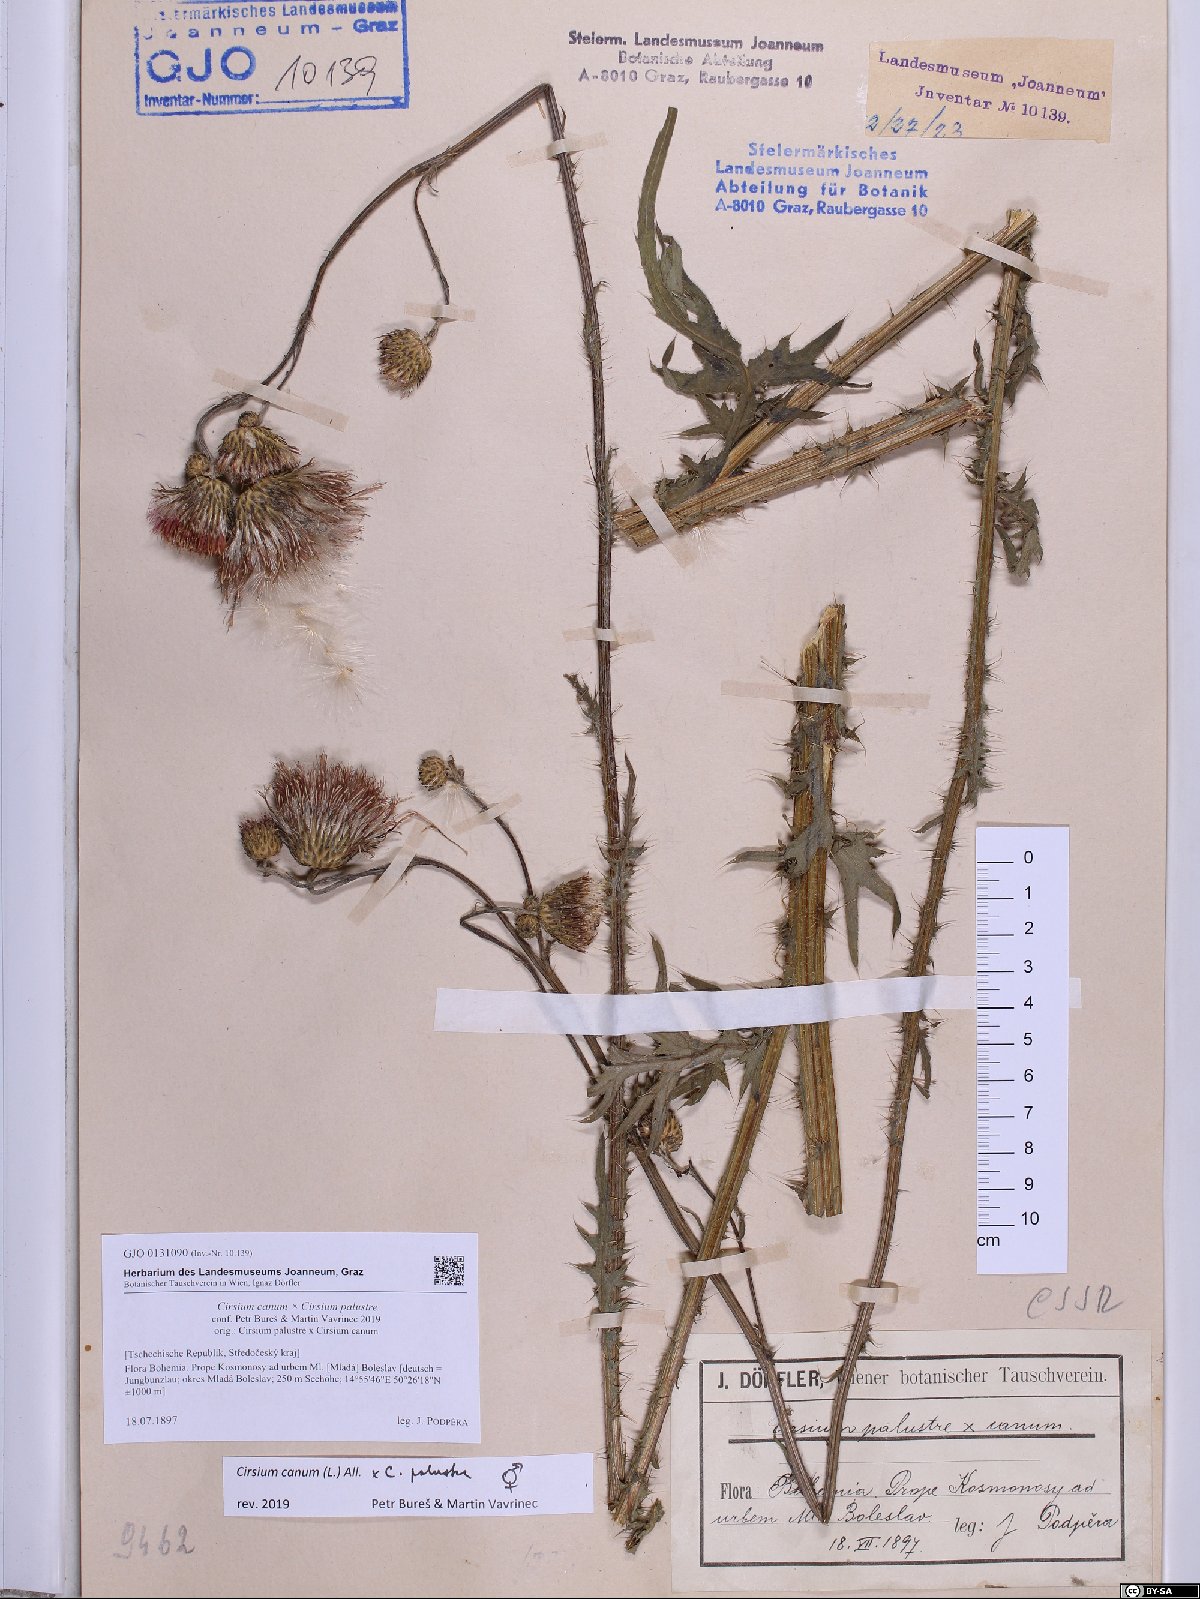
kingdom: Plantae
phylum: Tracheophyta
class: Magnoliopsida
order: Asterales
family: Asteraceae
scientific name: Asteraceae
